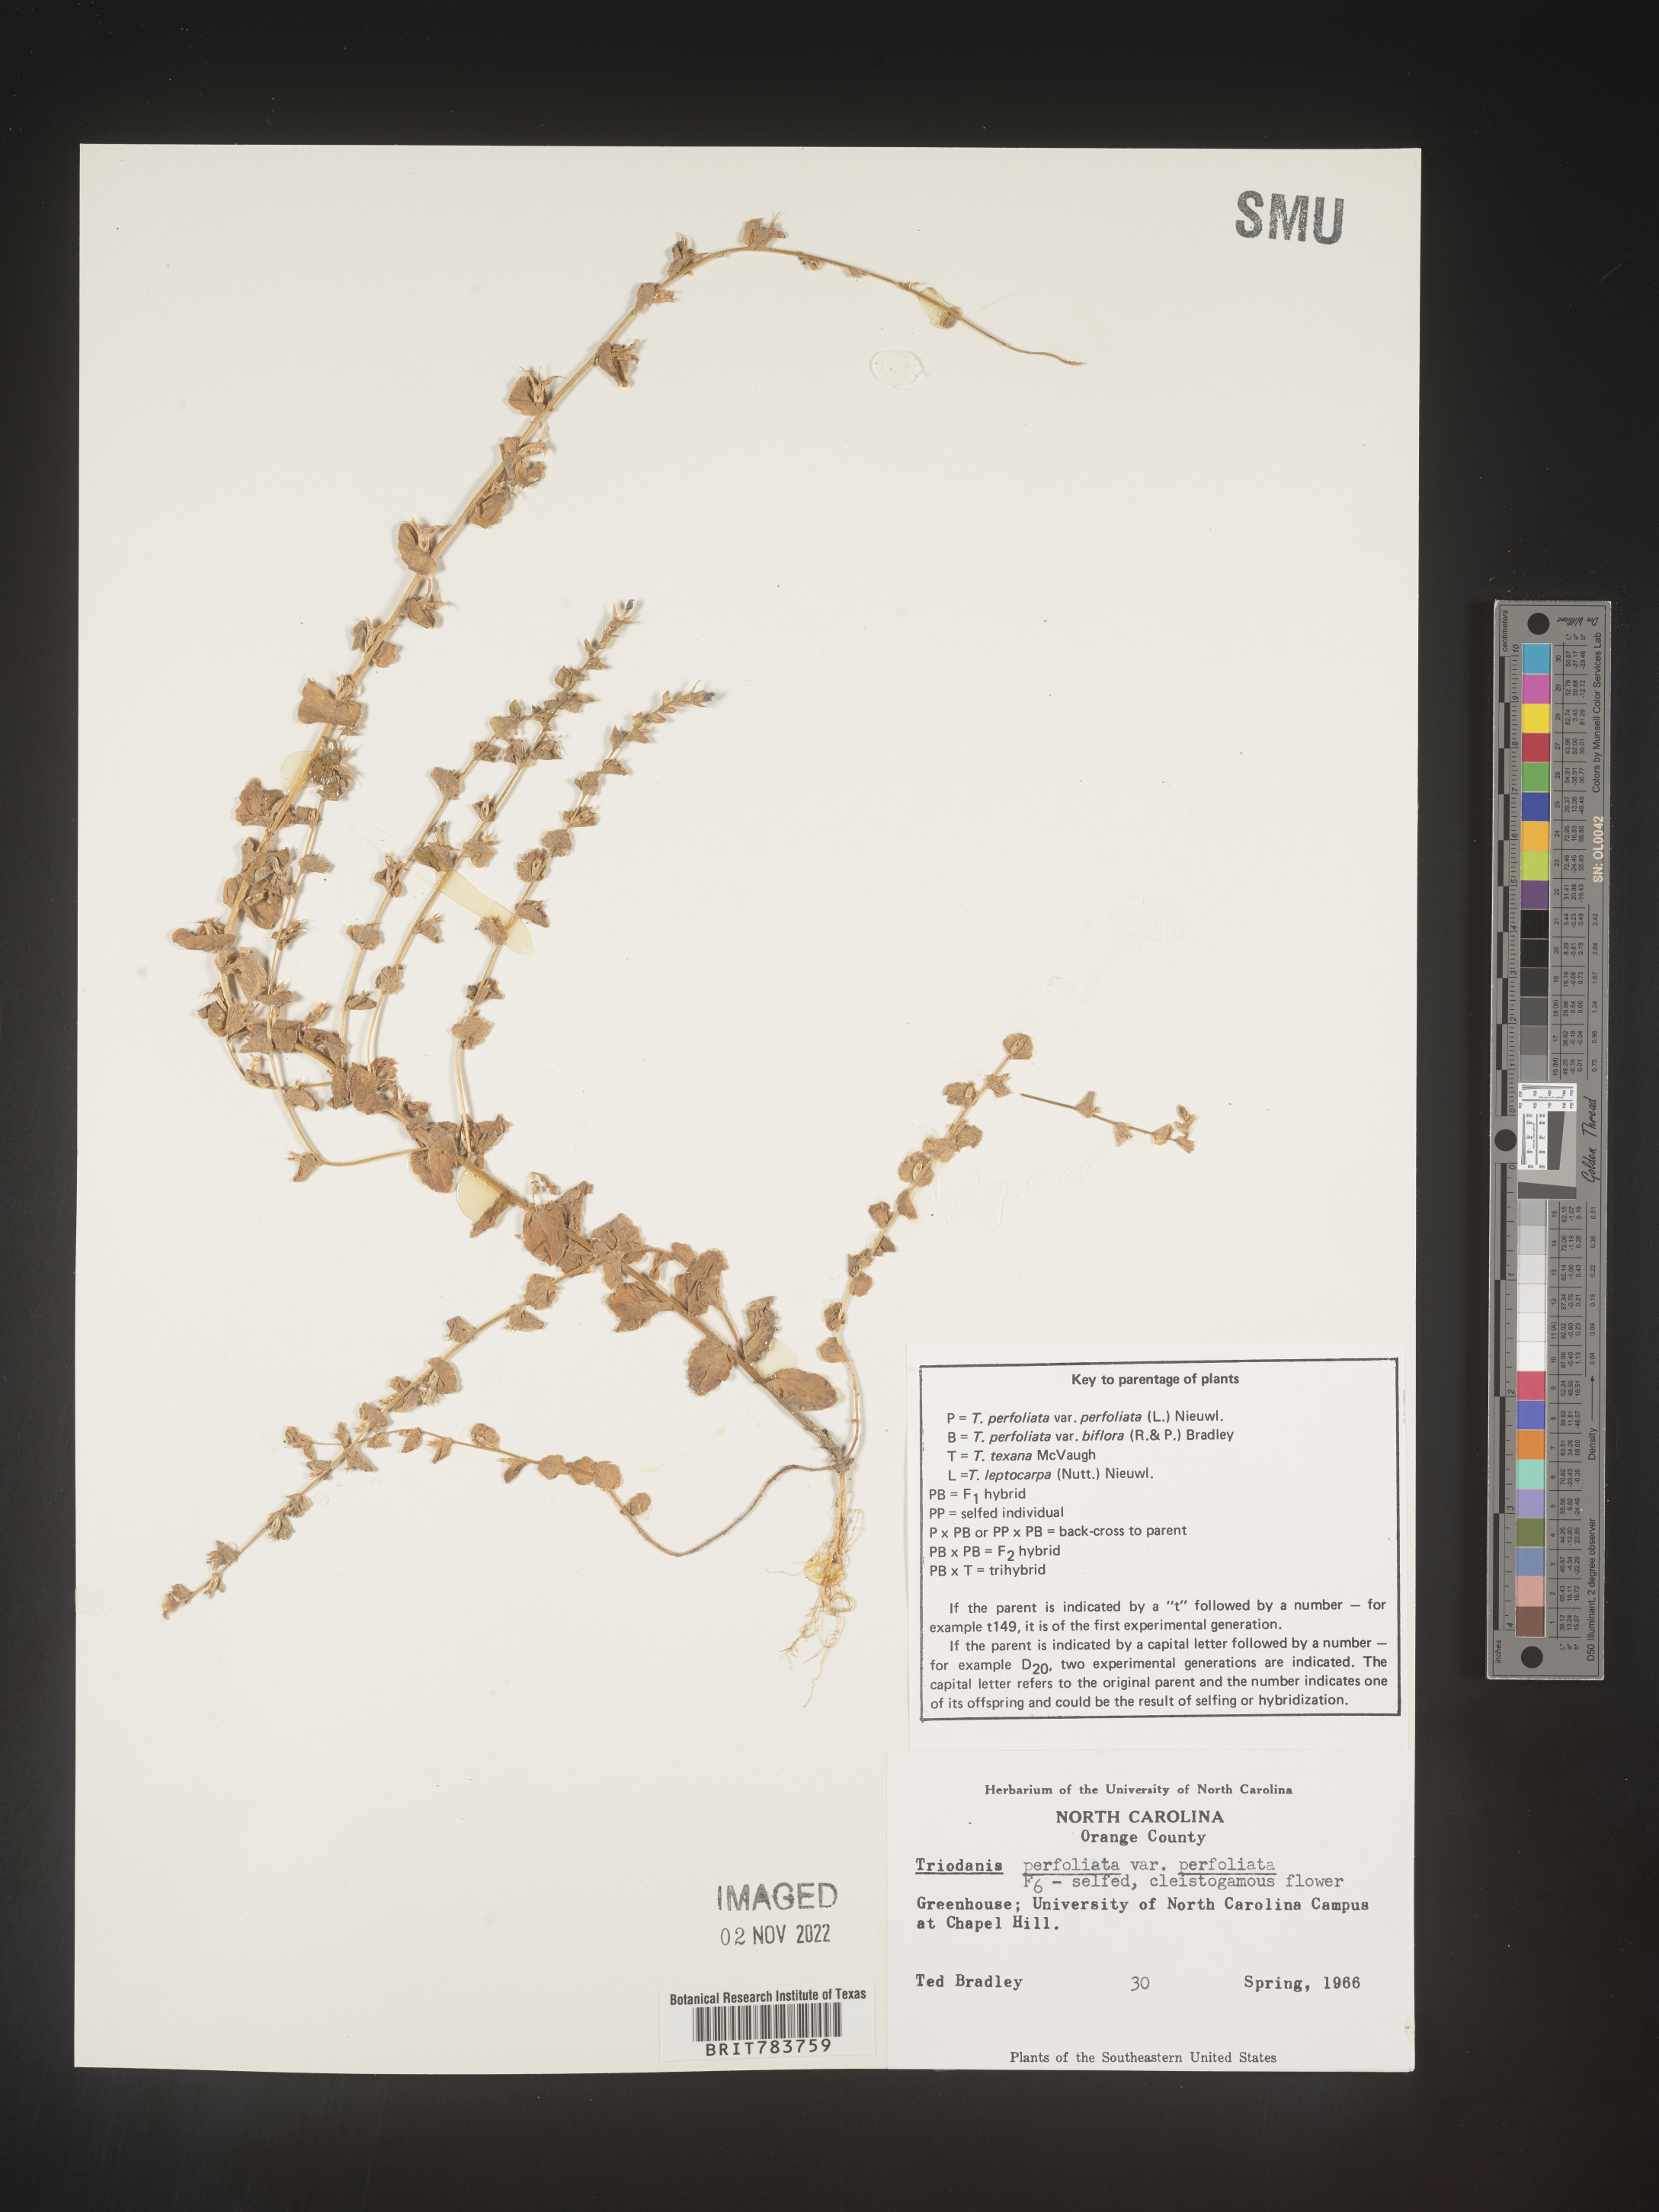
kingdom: Plantae
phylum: Tracheophyta
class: Magnoliopsida
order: Asterales
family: Campanulaceae
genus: Triodanis
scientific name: Triodanis
